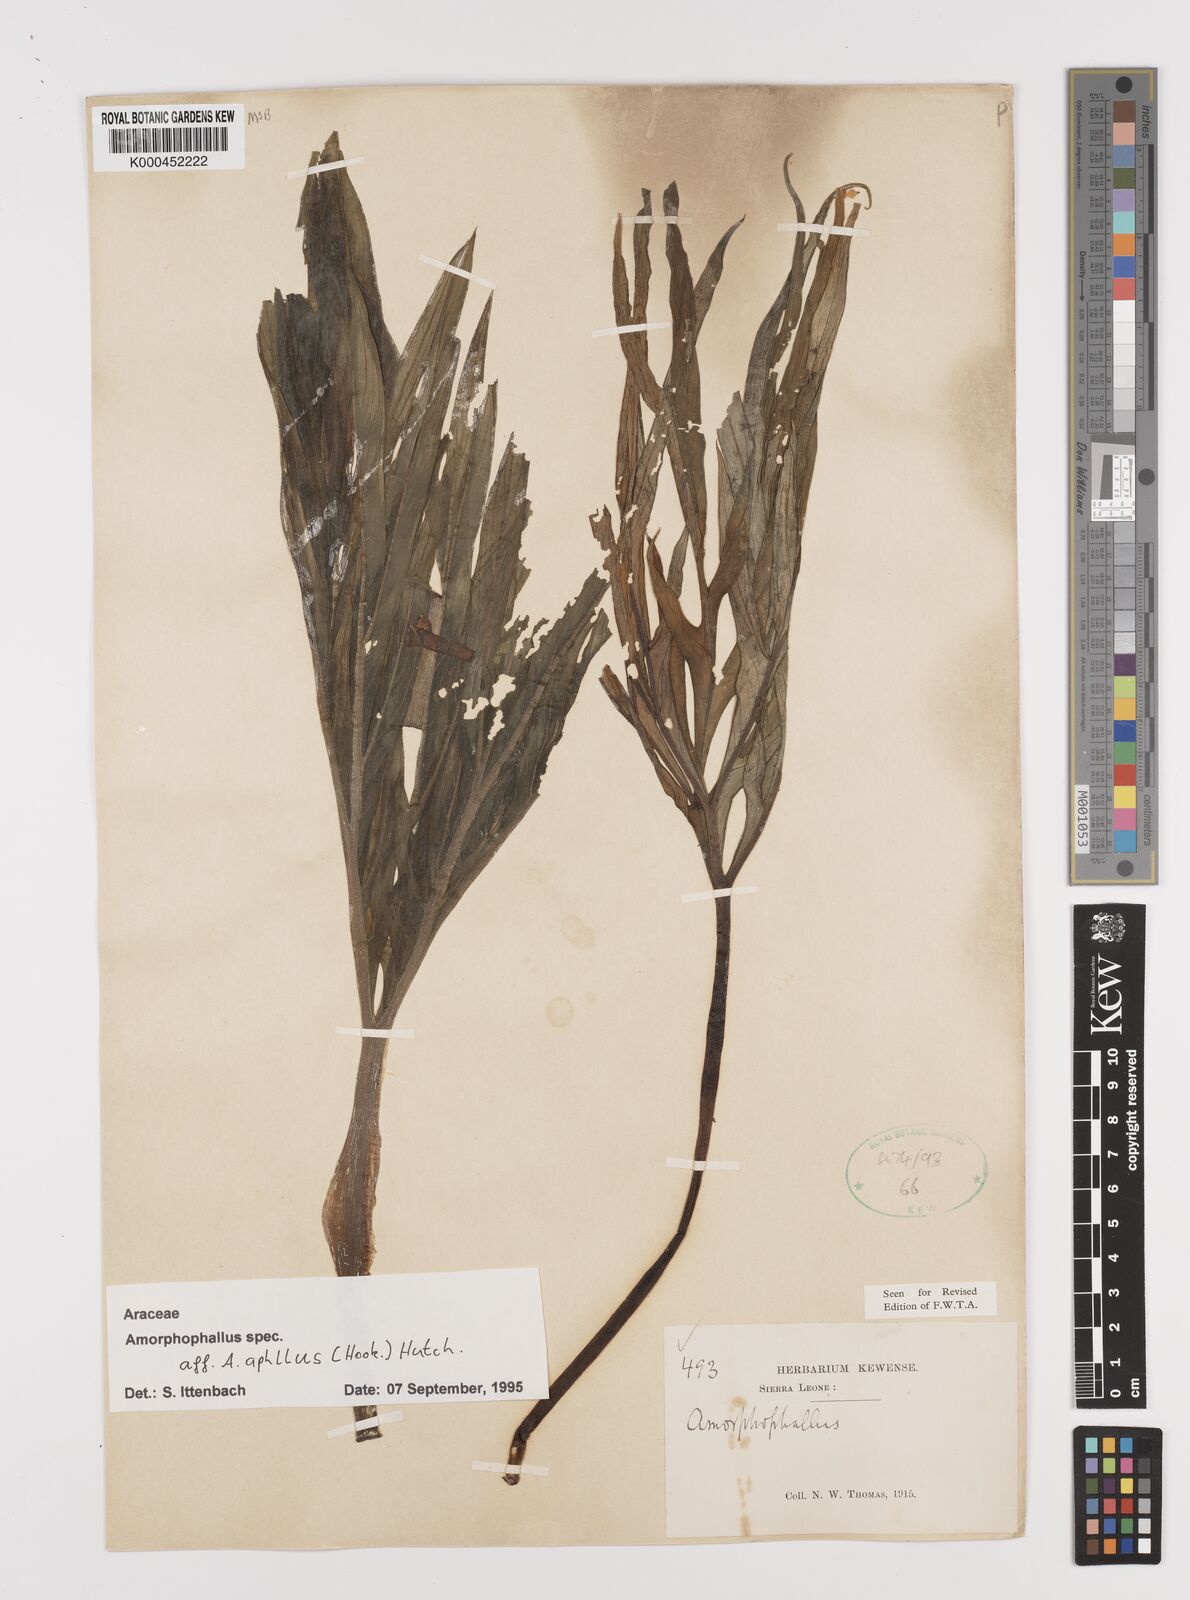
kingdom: Plantae
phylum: Tracheophyta
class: Liliopsida
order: Alismatales
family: Araceae
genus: Amorphophallus
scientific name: Amorphophallus aphyllus
